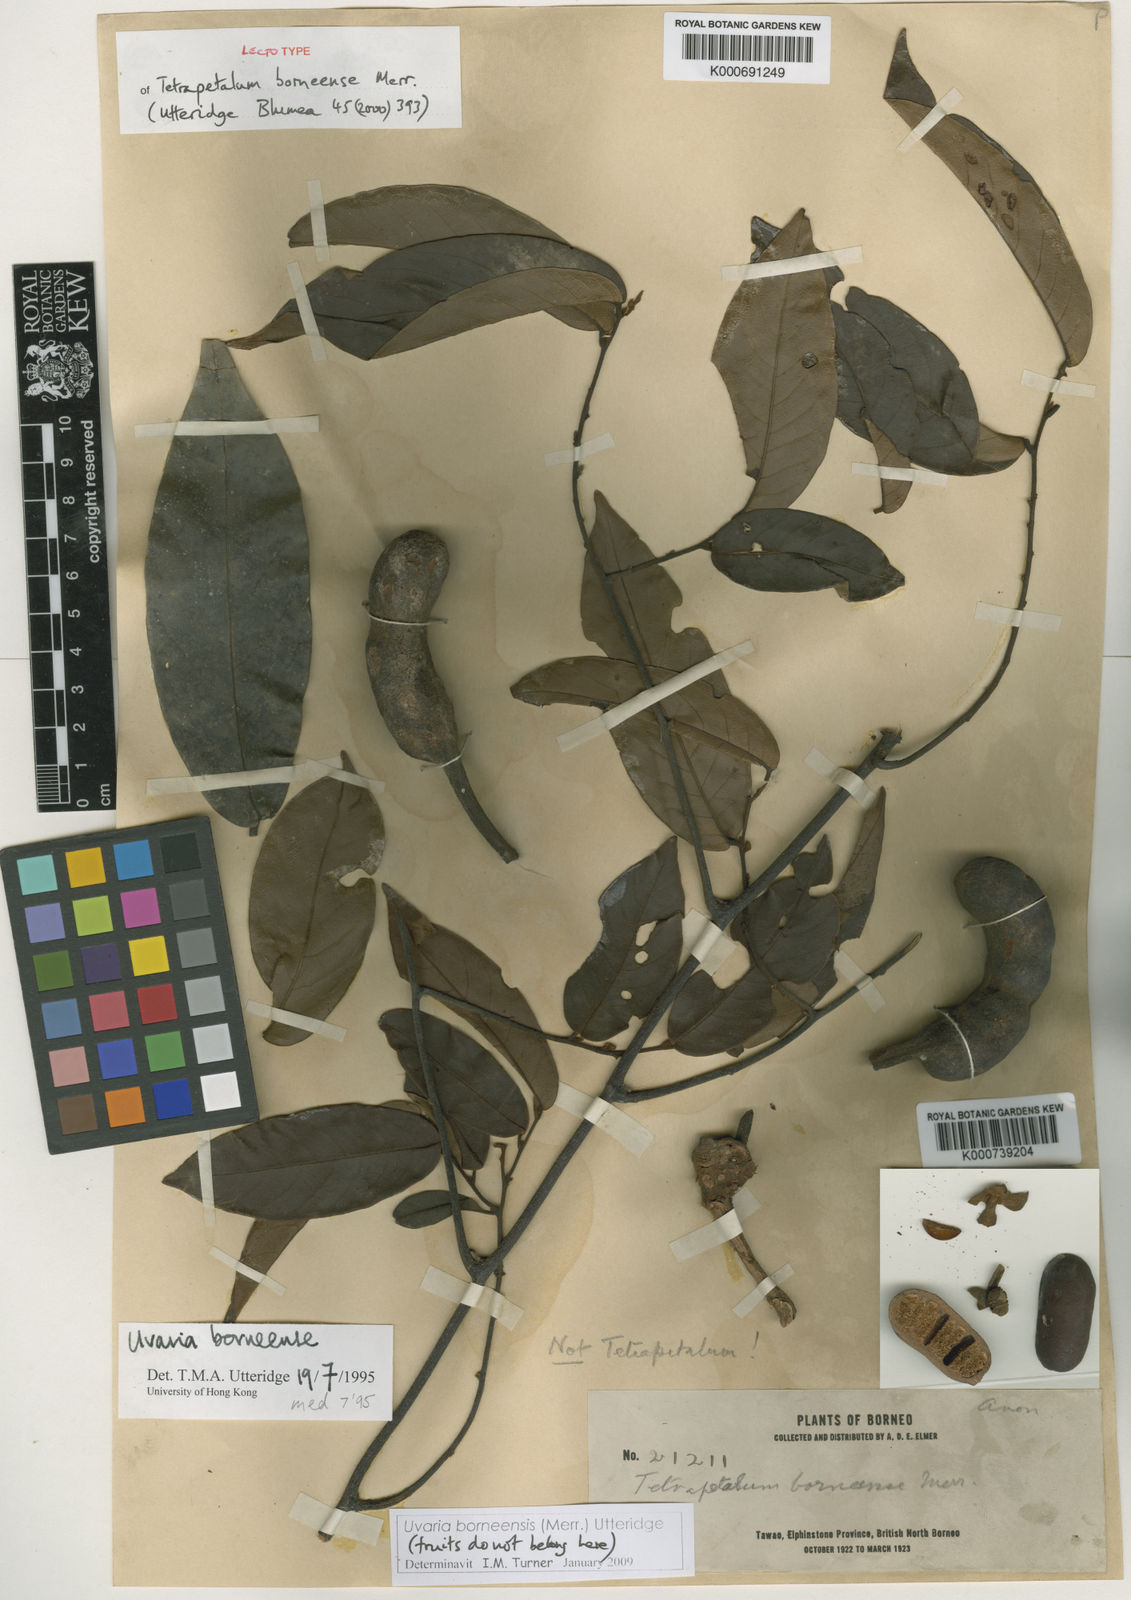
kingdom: Plantae
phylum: Tracheophyta
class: Magnoliopsida
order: Magnoliales
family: Annonaceae
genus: Uvaria
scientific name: Uvaria borneensis
